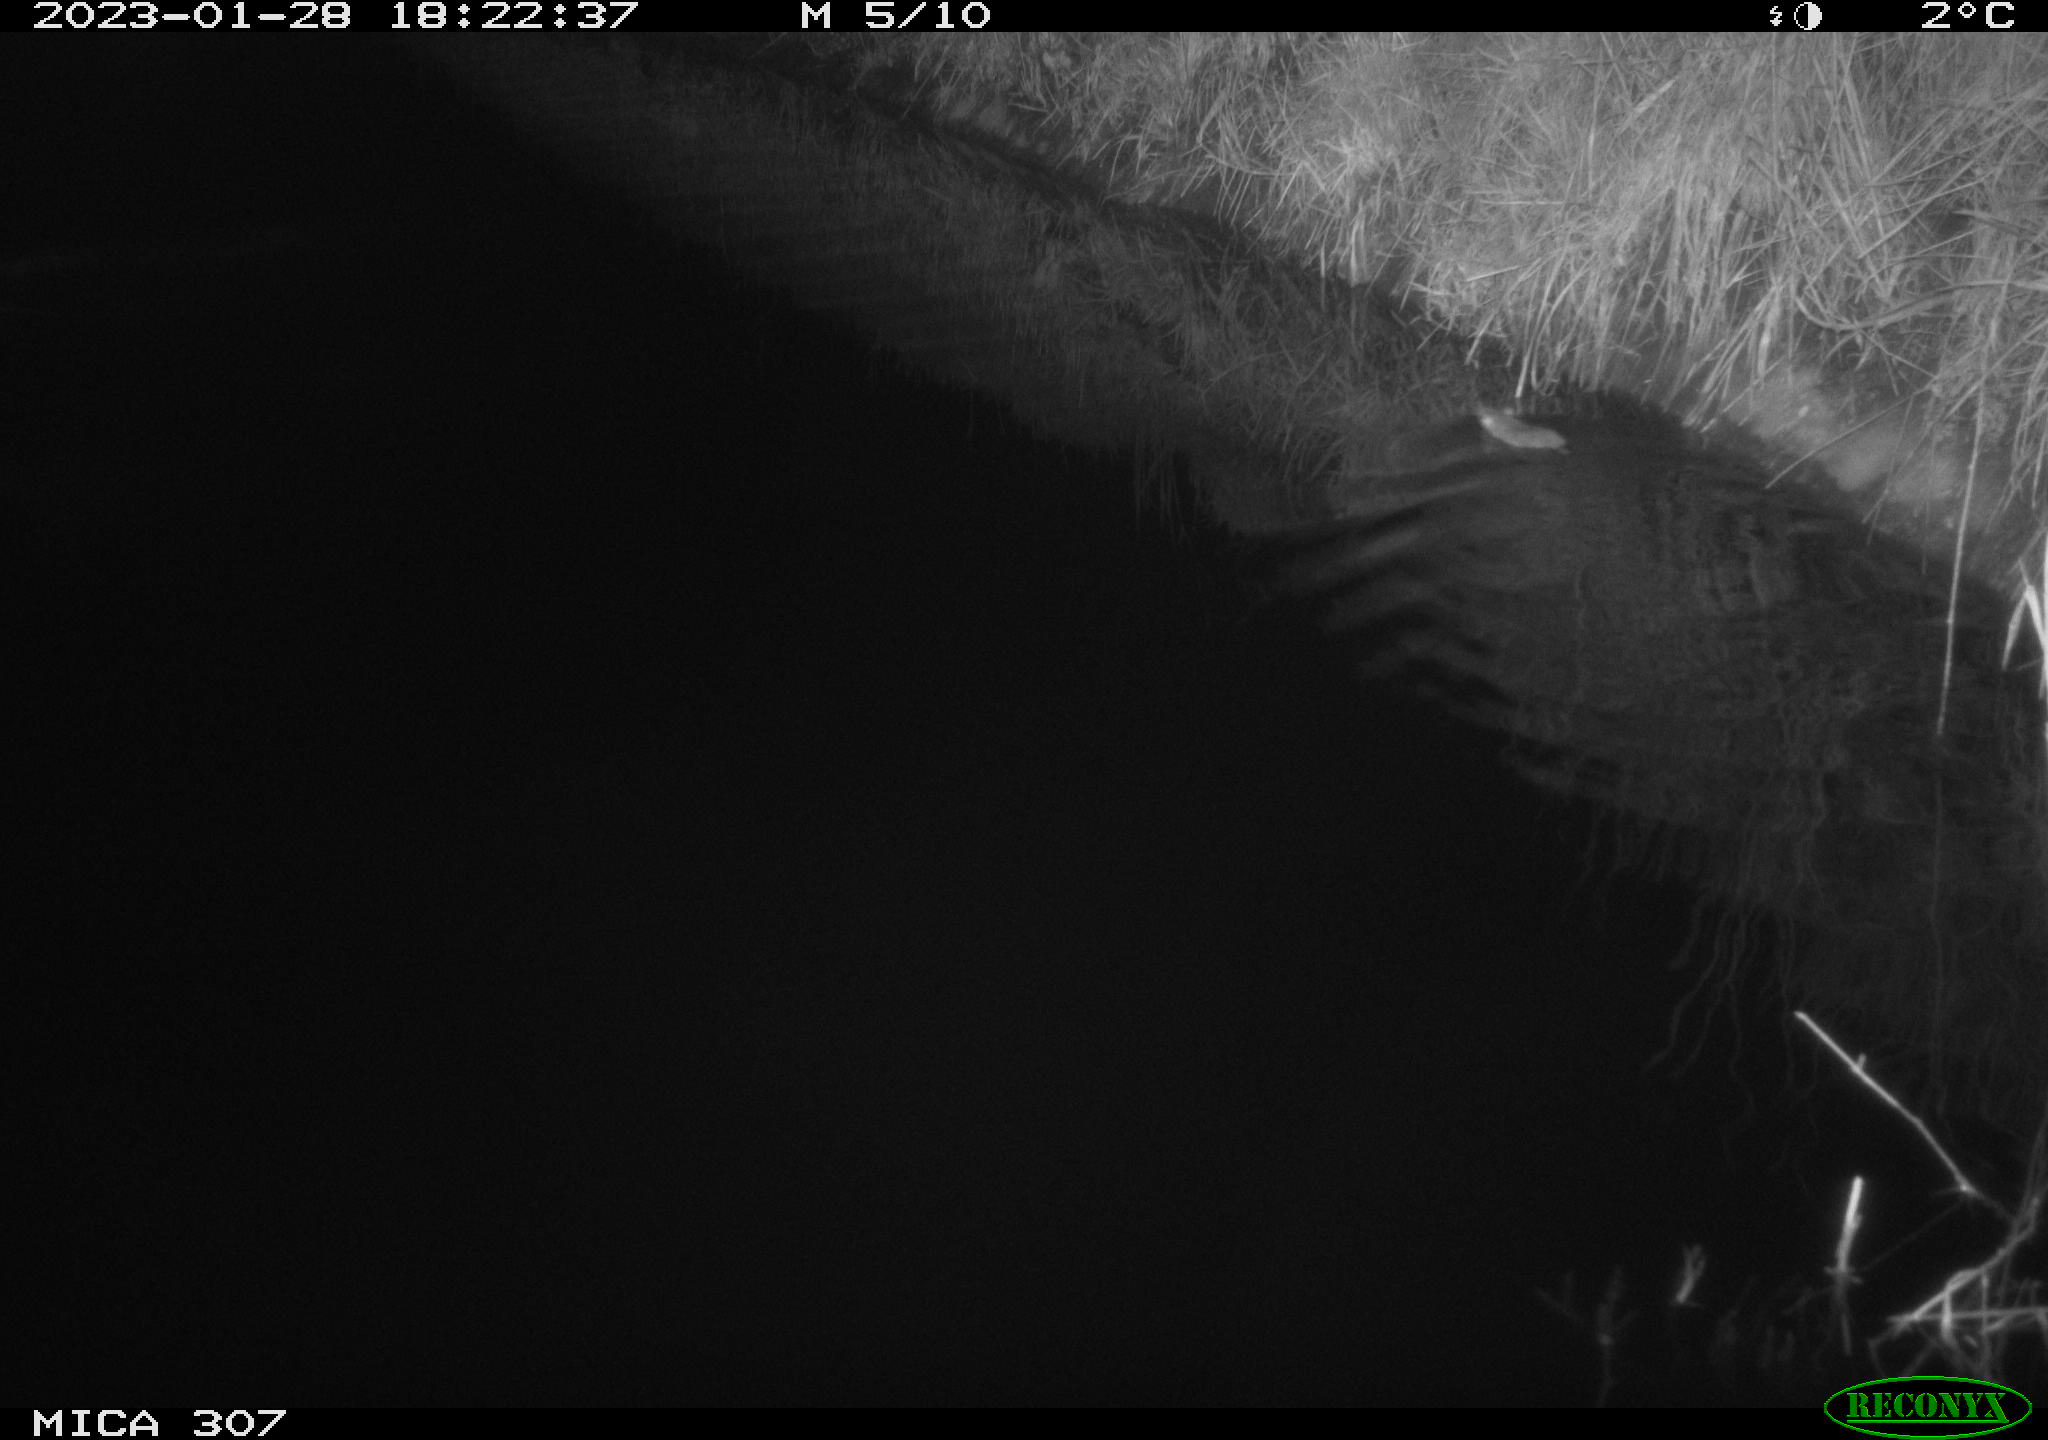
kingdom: Animalia
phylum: Chordata
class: Mammalia
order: Rodentia
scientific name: Rodentia
